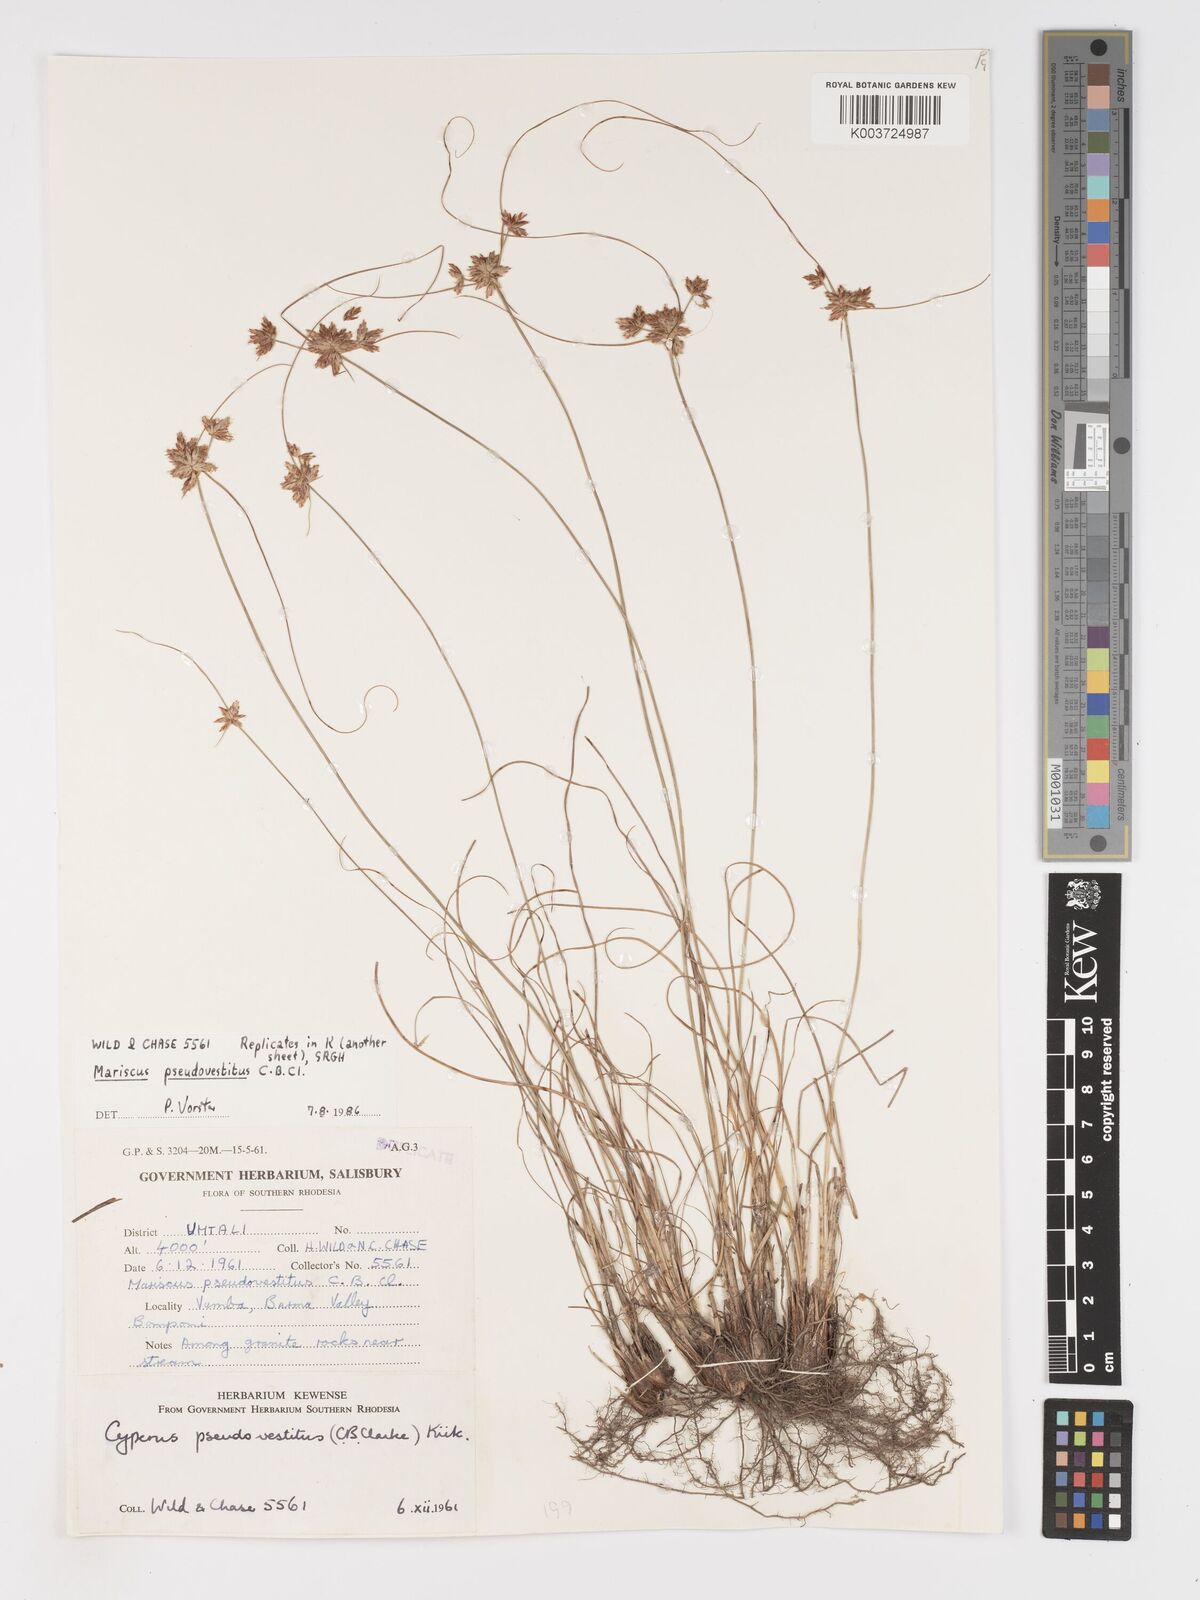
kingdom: Plantae
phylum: Tracheophyta
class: Liliopsida
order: Poales
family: Cyperaceae
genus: Cyperus
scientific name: Cyperus pseudovestitus
